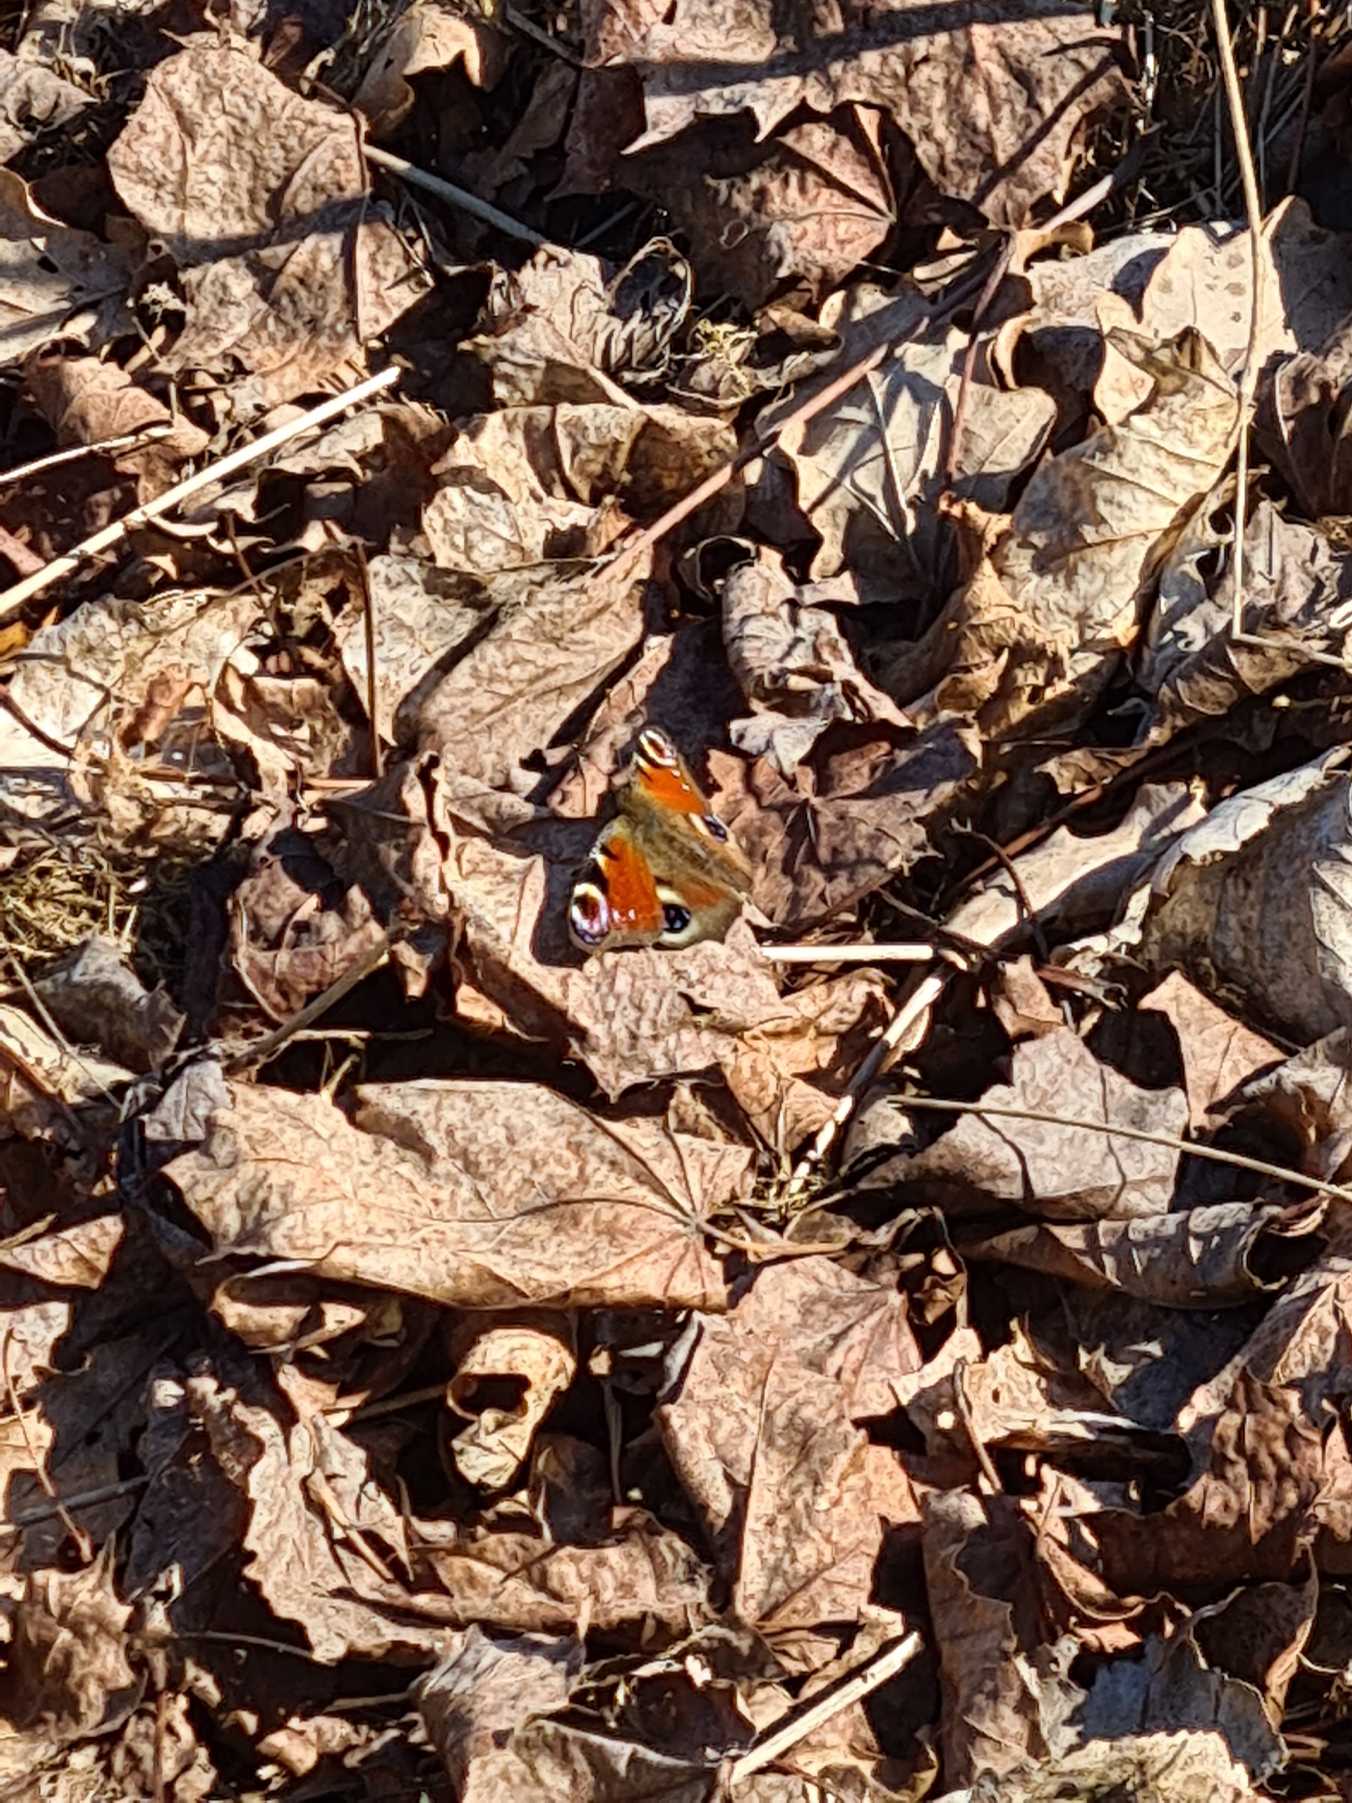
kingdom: Animalia
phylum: Arthropoda
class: Insecta
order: Lepidoptera
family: Nymphalidae
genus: Aglais
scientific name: Aglais io
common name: Dagpåfugleøje
